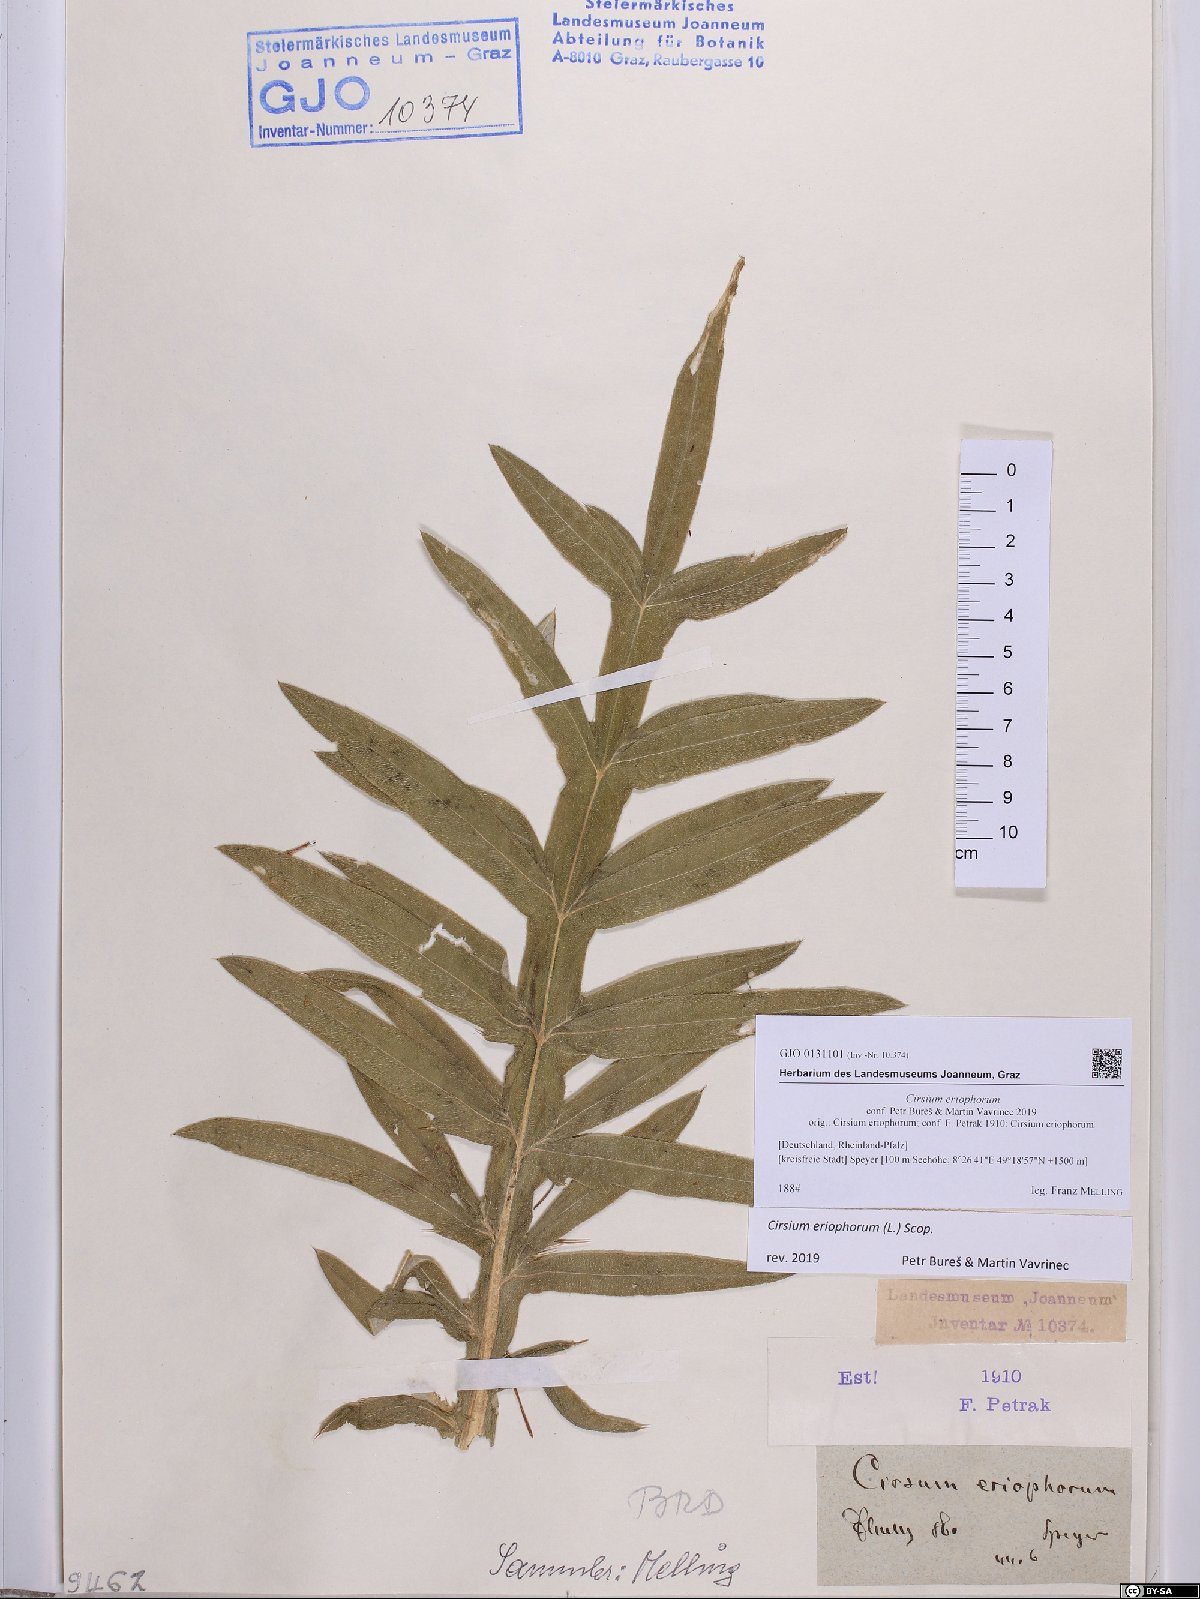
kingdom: Plantae
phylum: Tracheophyta
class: Magnoliopsida
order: Asterales
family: Asteraceae
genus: Lophiolepis
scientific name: Lophiolepis eriophora
